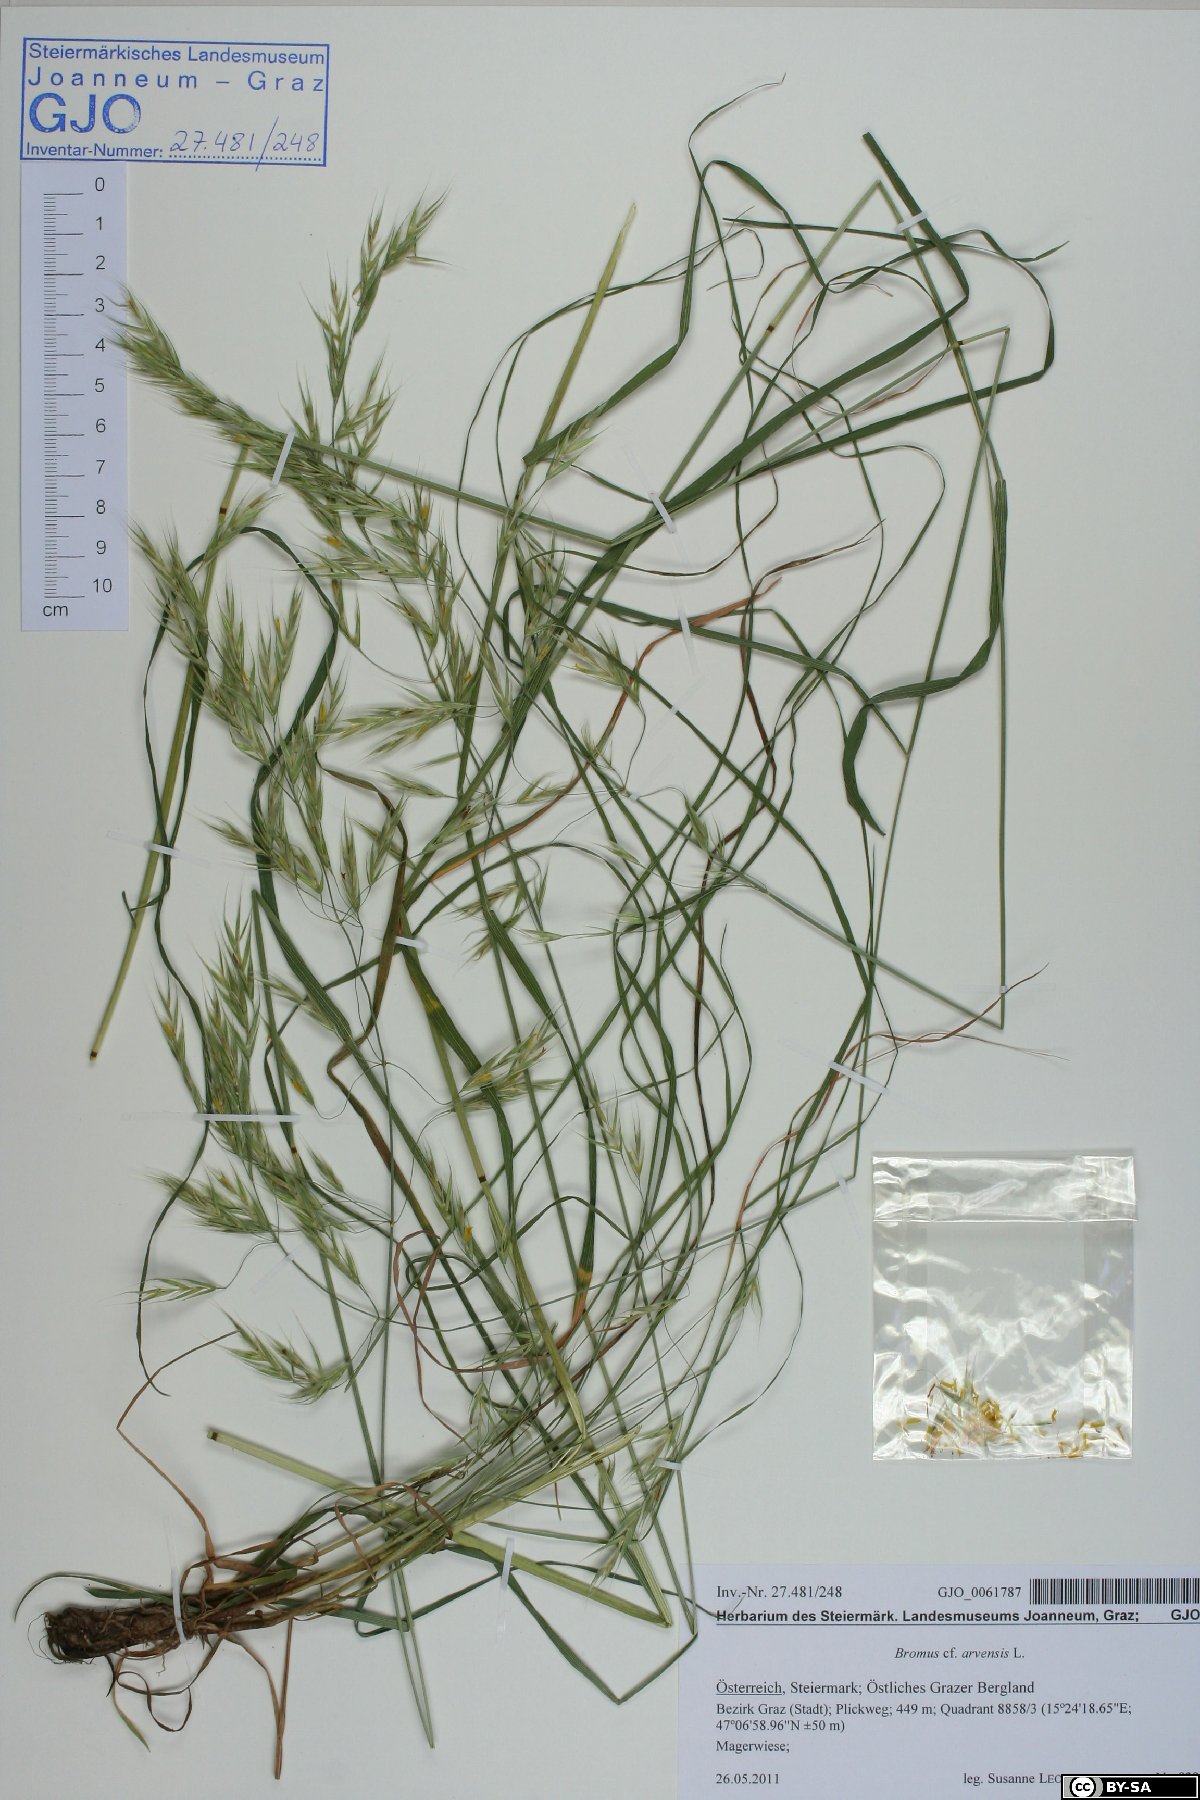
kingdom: Plantae
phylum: Tracheophyta
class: Liliopsida
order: Poales
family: Poaceae
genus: Bromus
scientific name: Bromus arvensis
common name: Field brome
